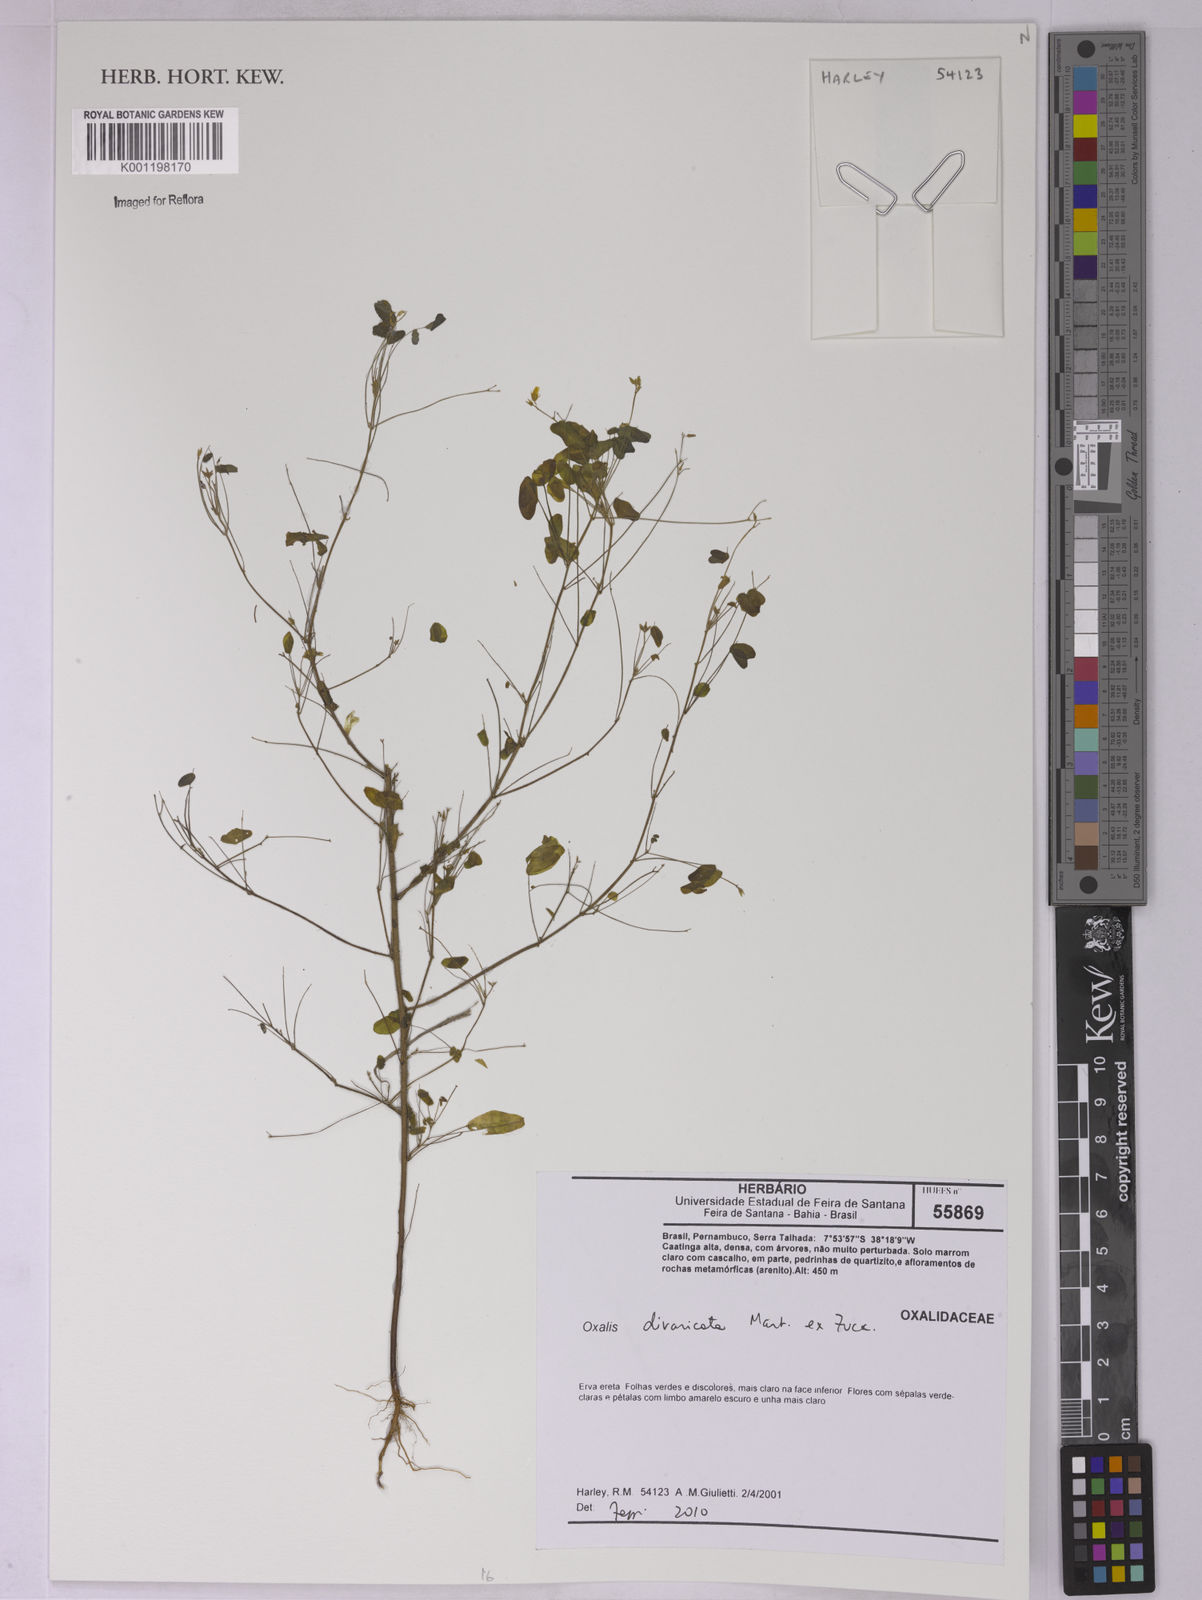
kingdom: Plantae
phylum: Tracheophyta
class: Magnoliopsida
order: Oxalidales
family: Oxalidaceae
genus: Oxalis
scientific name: Oxalis divaricata
